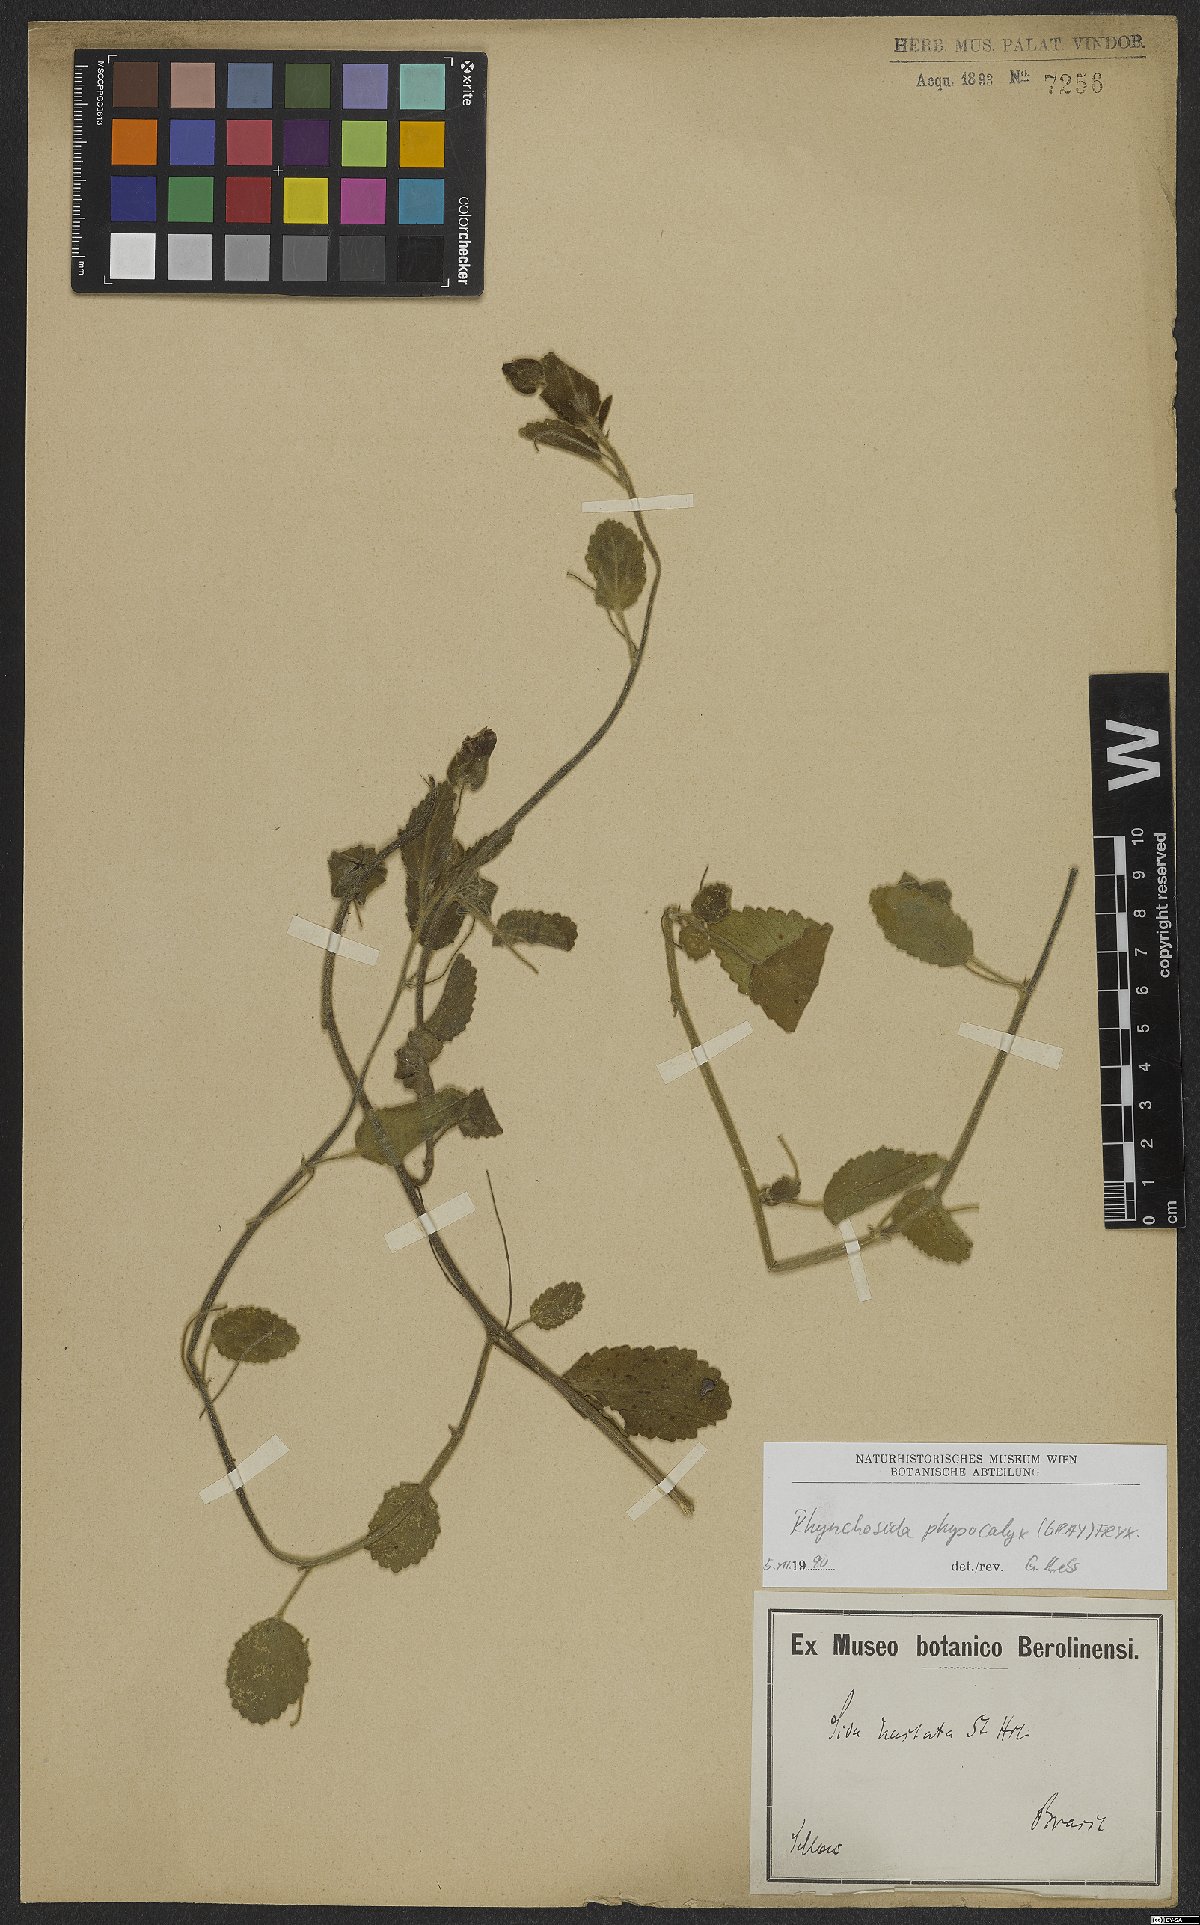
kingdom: Plantae
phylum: Tracheophyta
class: Magnoliopsida
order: Malvales
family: Malvaceae
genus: Rhynchosida
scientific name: Rhynchosida physocalyx
